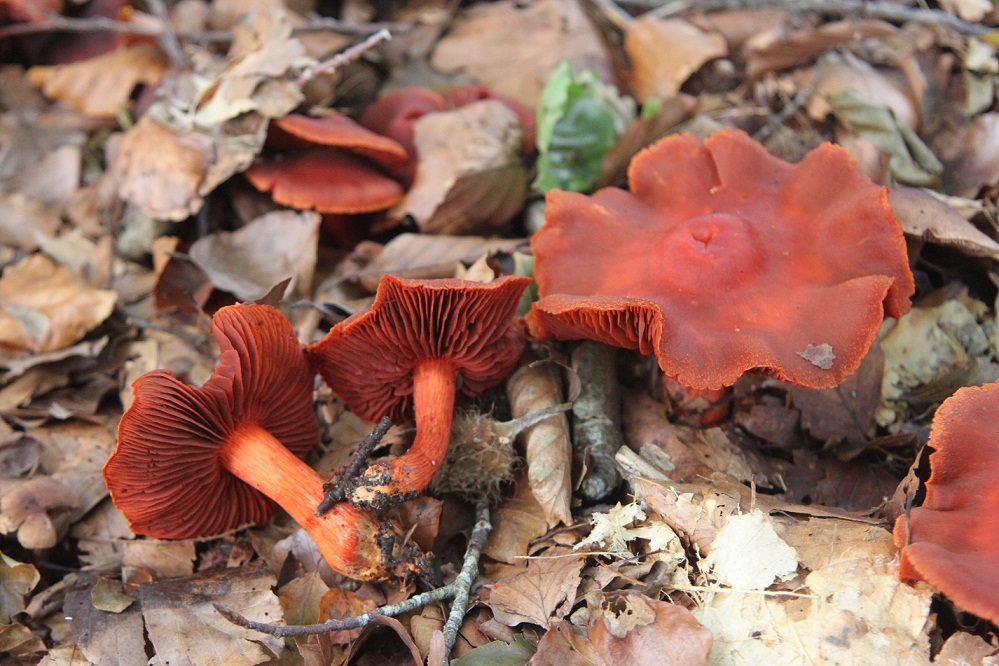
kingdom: Fungi
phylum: Basidiomycota
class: Agaricomycetes
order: Agaricales
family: Cortinariaceae
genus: Cortinarius
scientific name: Cortinarius cinnabarinus
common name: cinnober-slørhat
